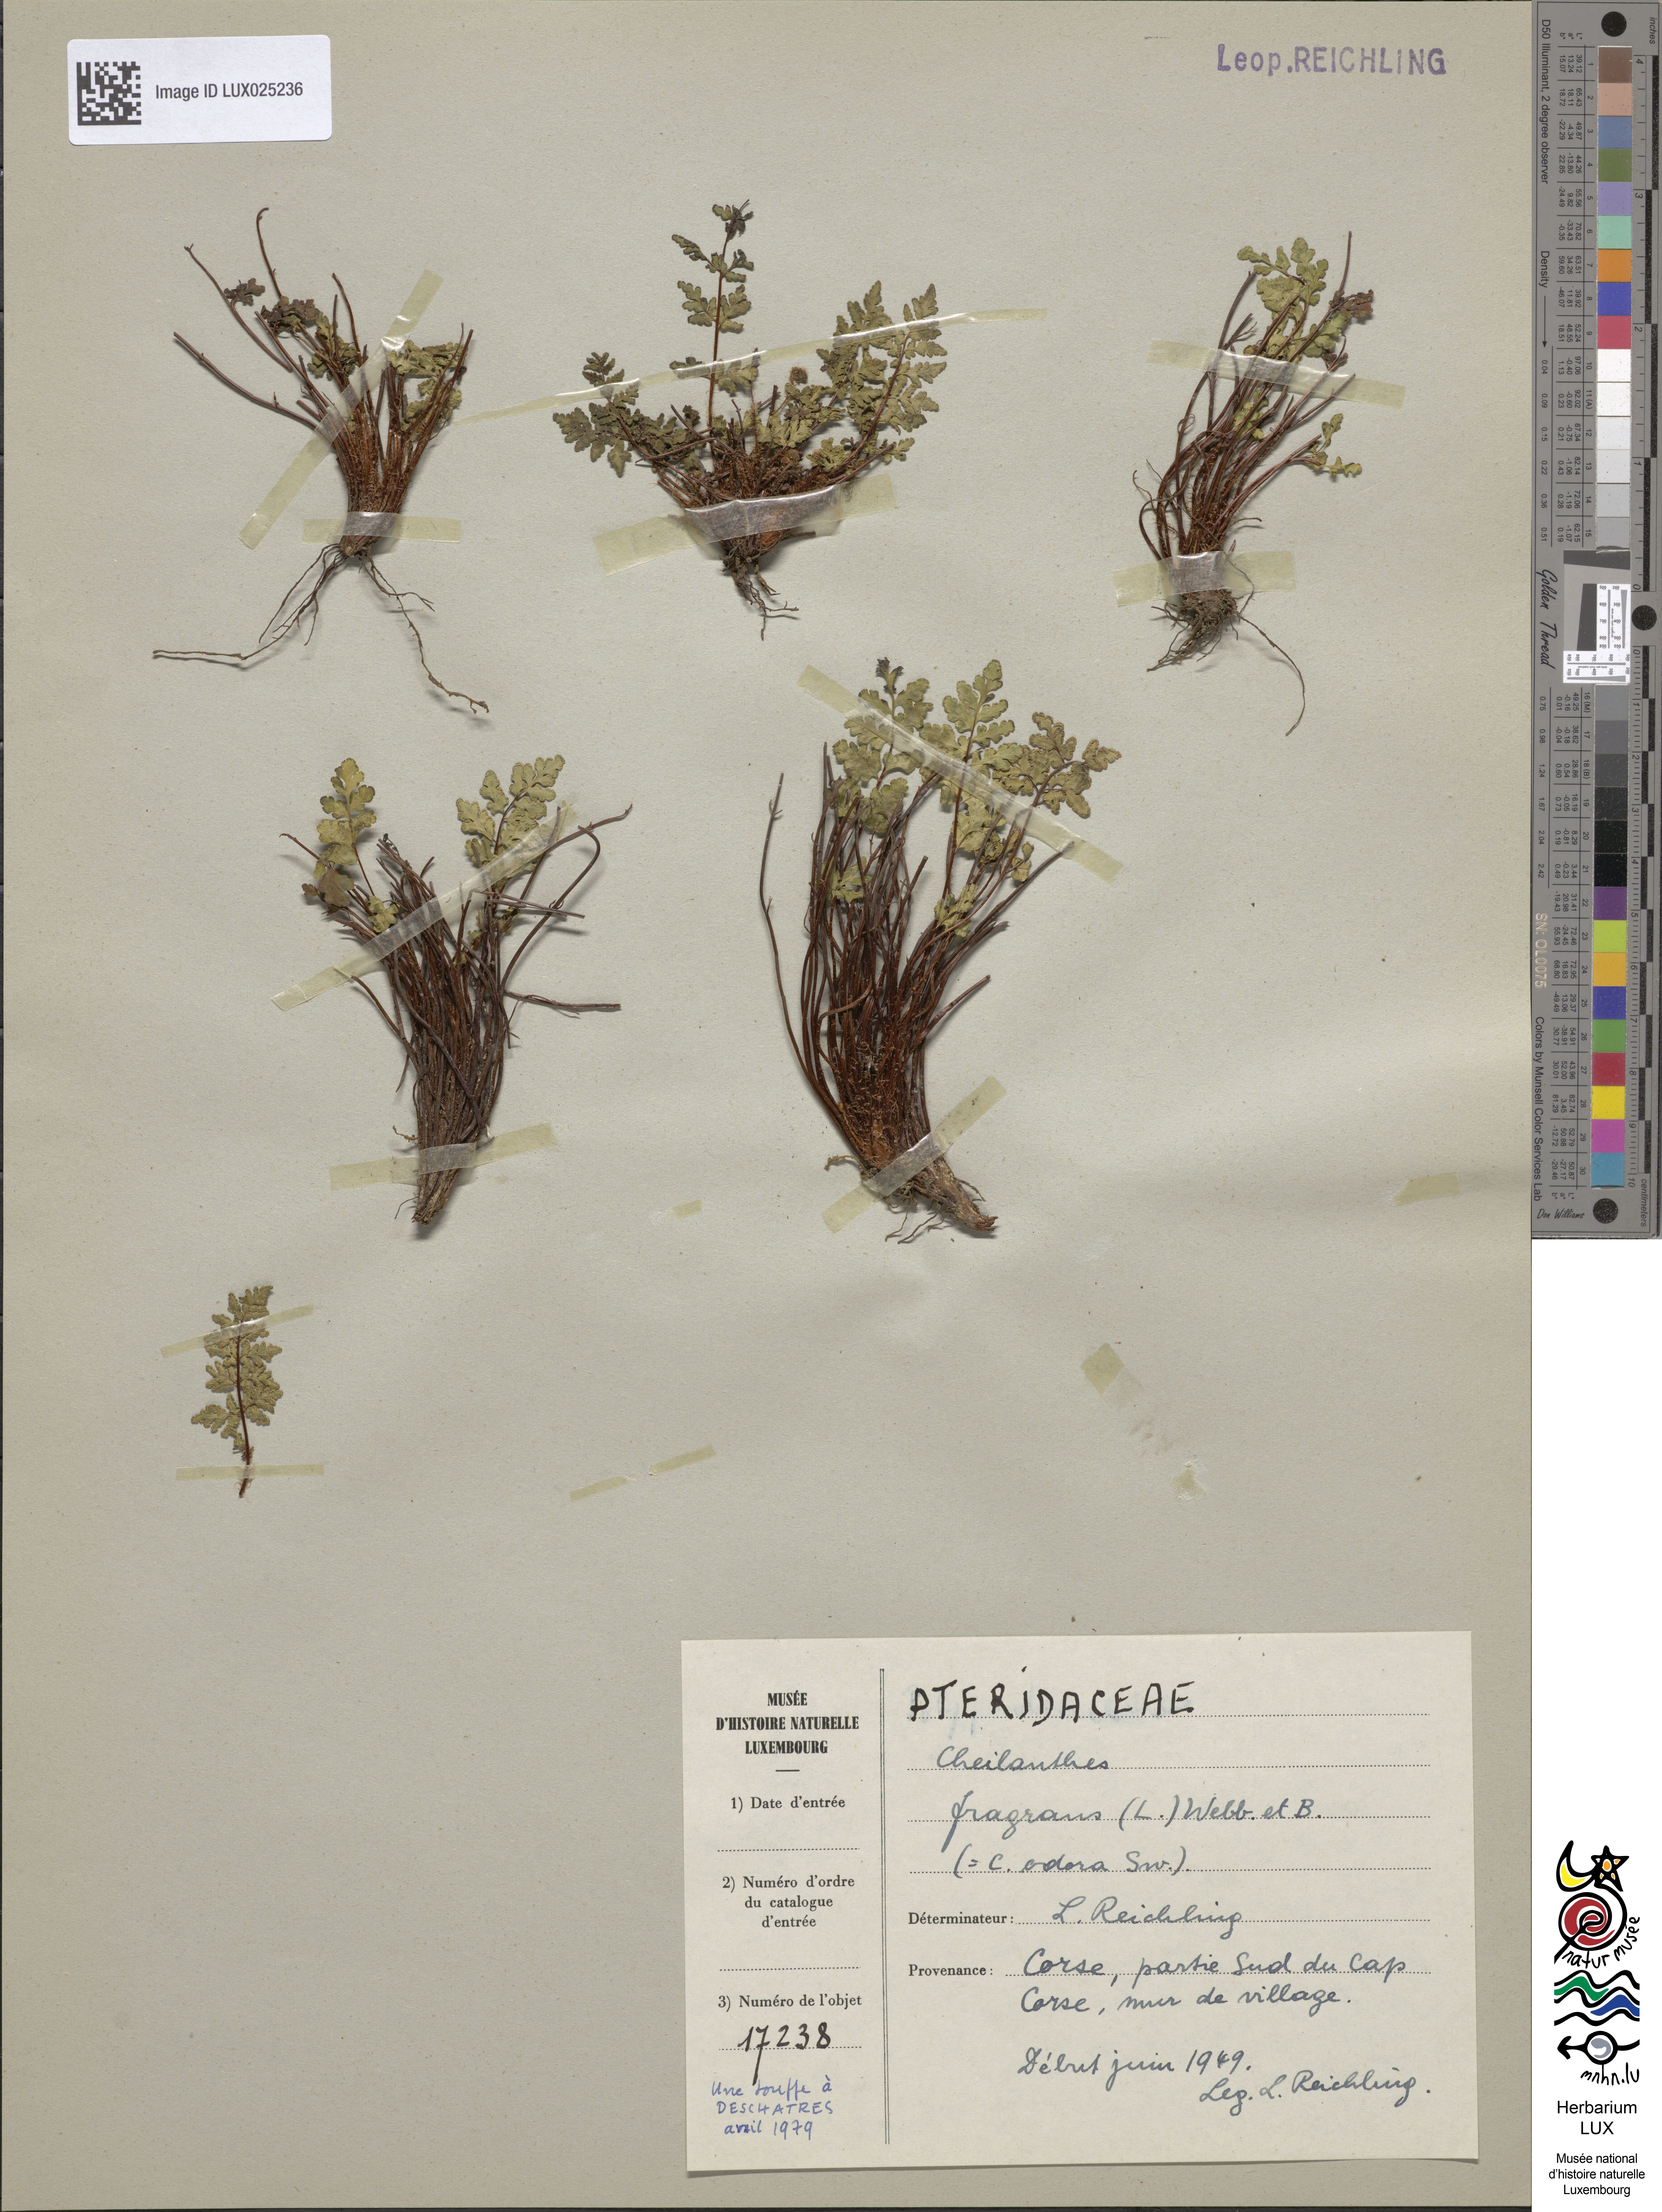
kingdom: Plantae
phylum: Tracheophyta
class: Polypodiopsida
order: Polypodiales
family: Pteridaceae
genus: Oeosporangium
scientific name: Oeosporangium pteridioides
